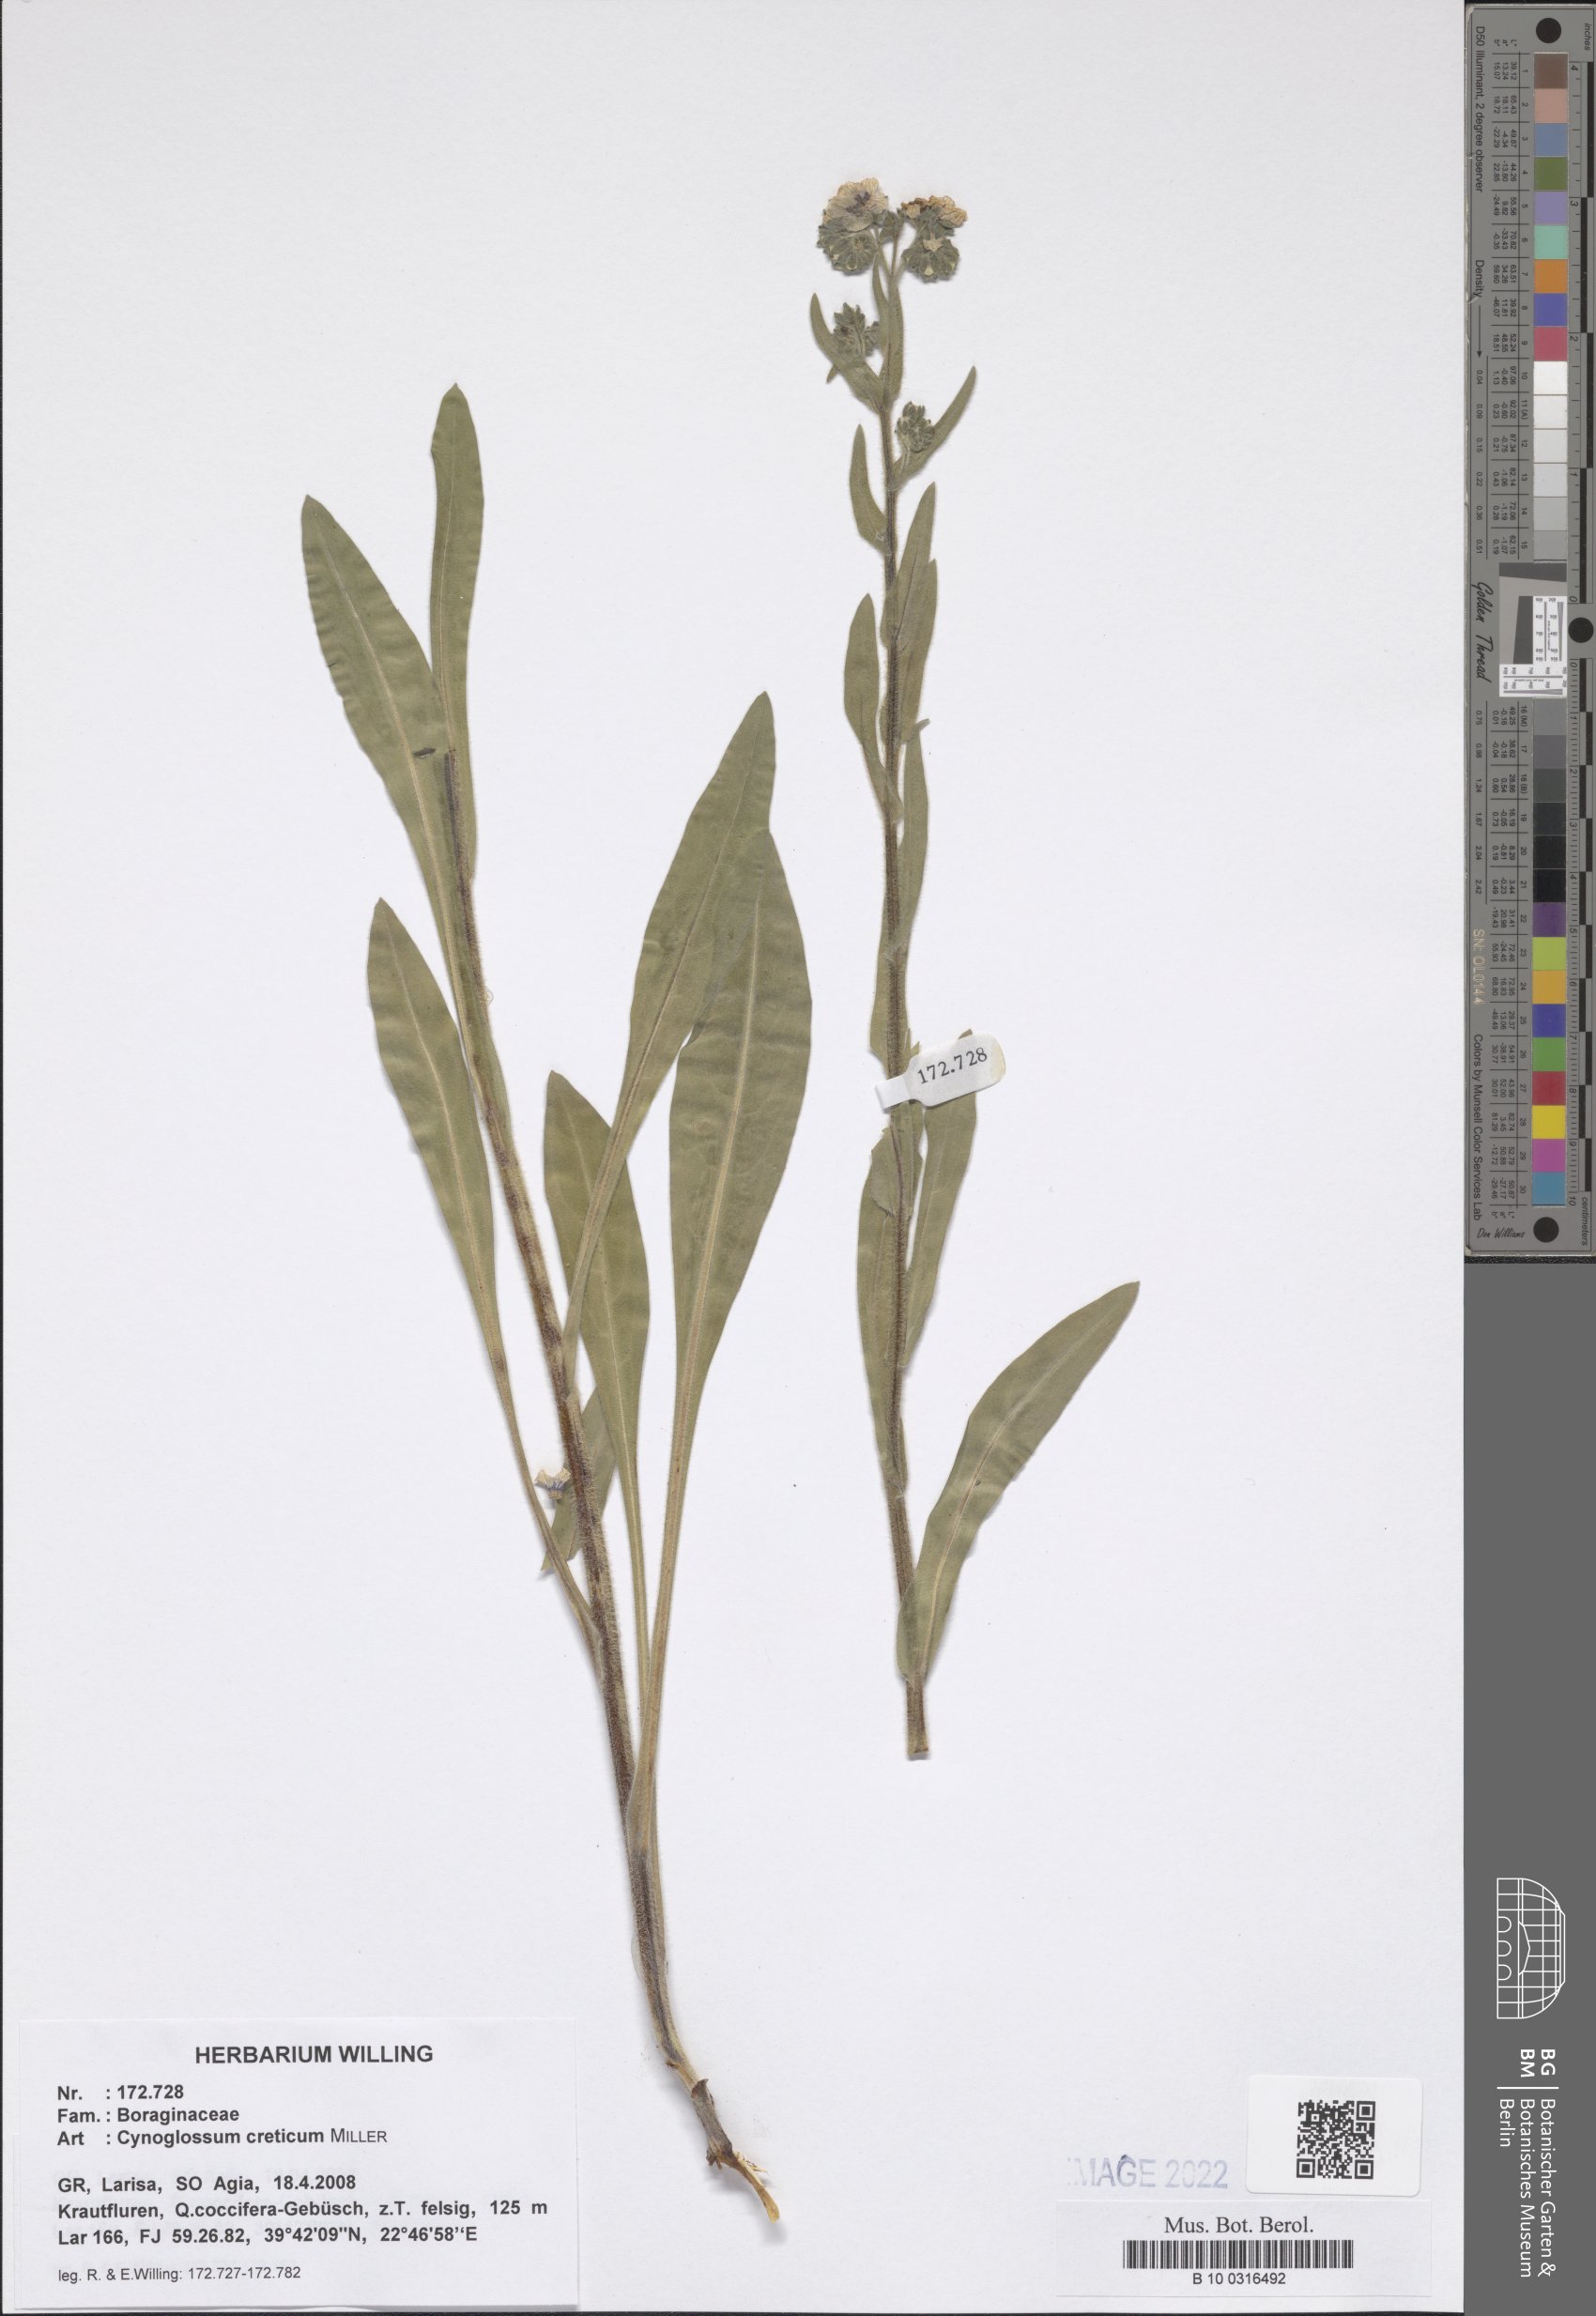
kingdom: Plantae
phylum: Tracheophyta
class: Magnoliopsida
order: Boraginales
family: Boraginaceae
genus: Cynoglossum
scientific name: Cynoglossum creticum
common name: Blue hound's tongue
